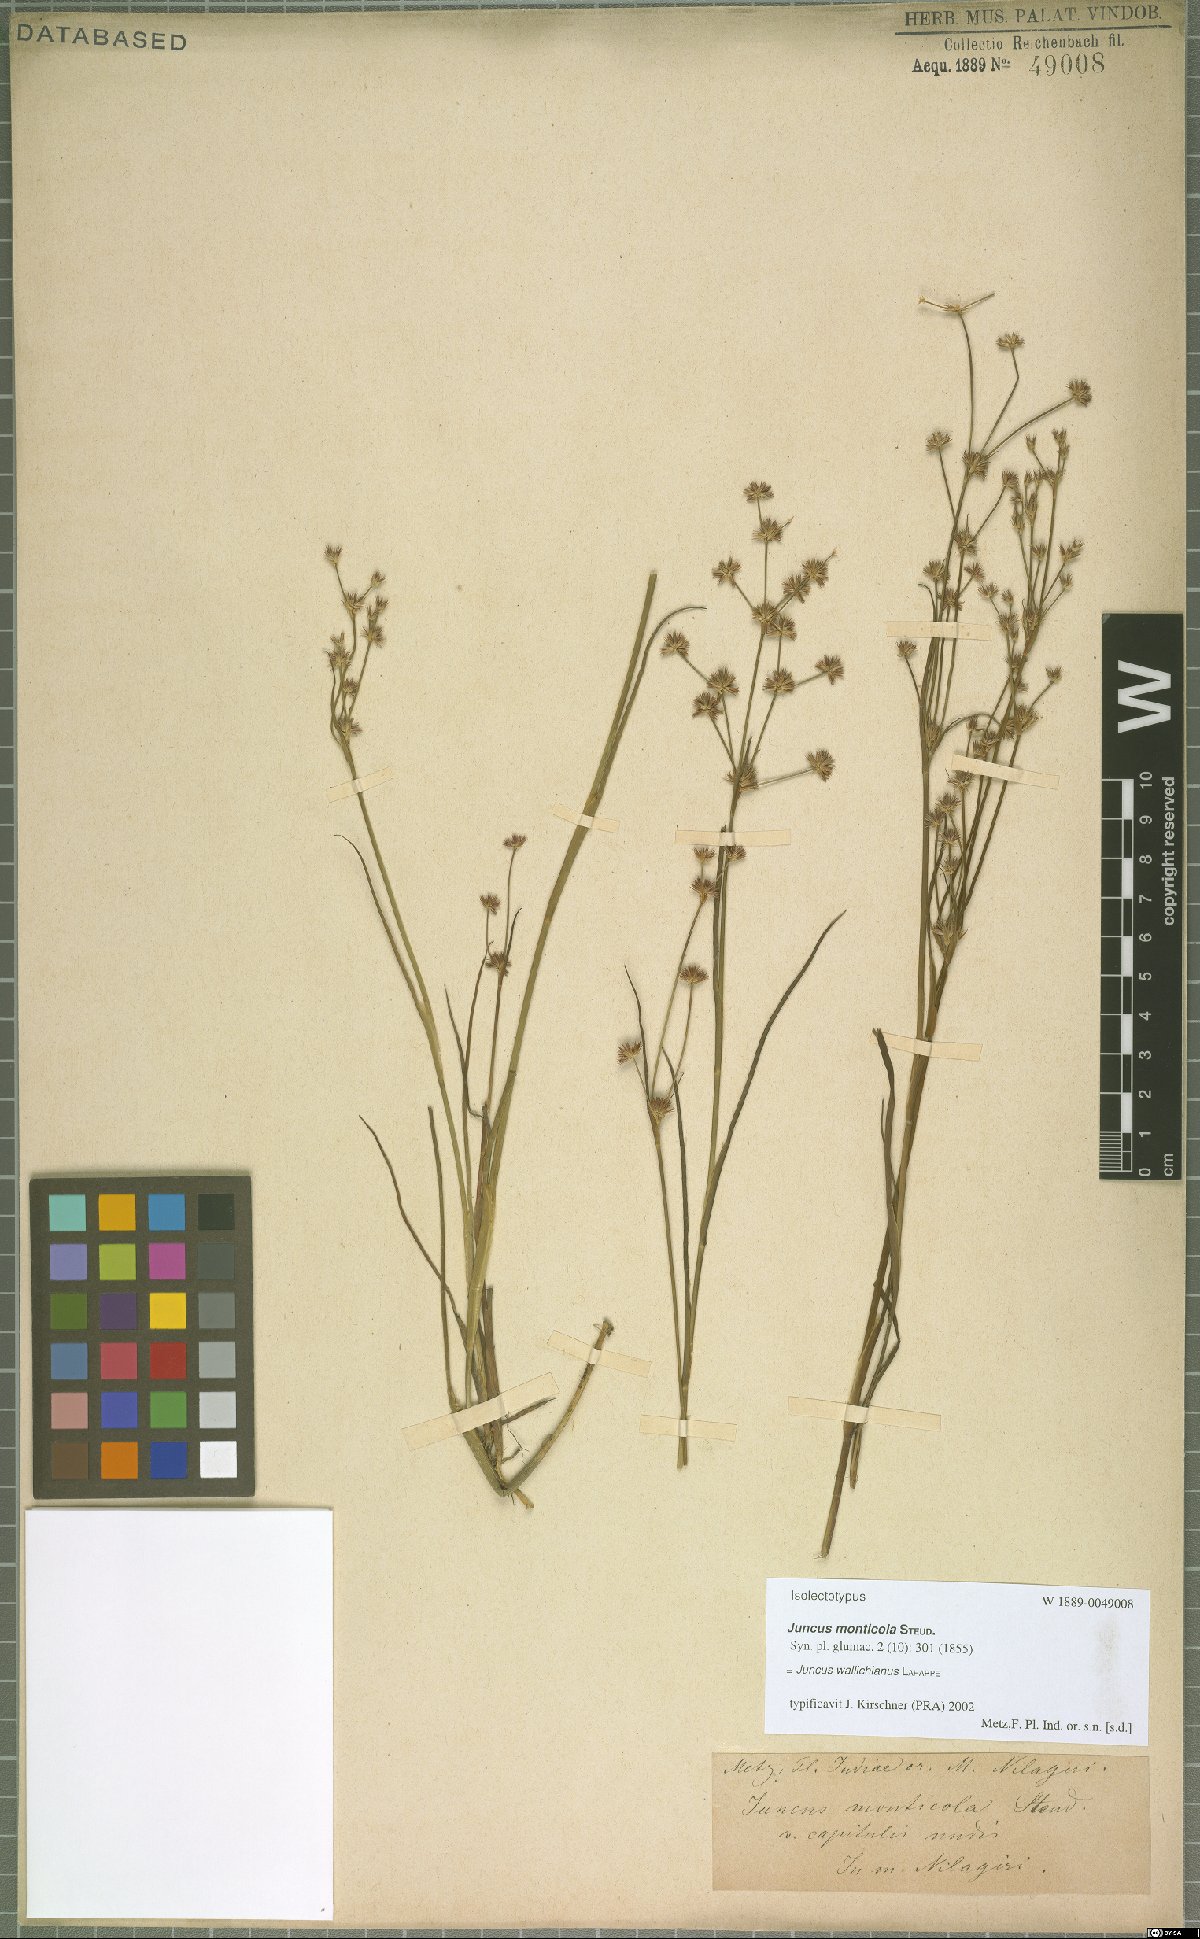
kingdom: Plantae
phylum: Tracheophyta
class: Liliopsida
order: Poales
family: Juncaceae
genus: Juncus
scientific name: Juncus wallichianus
